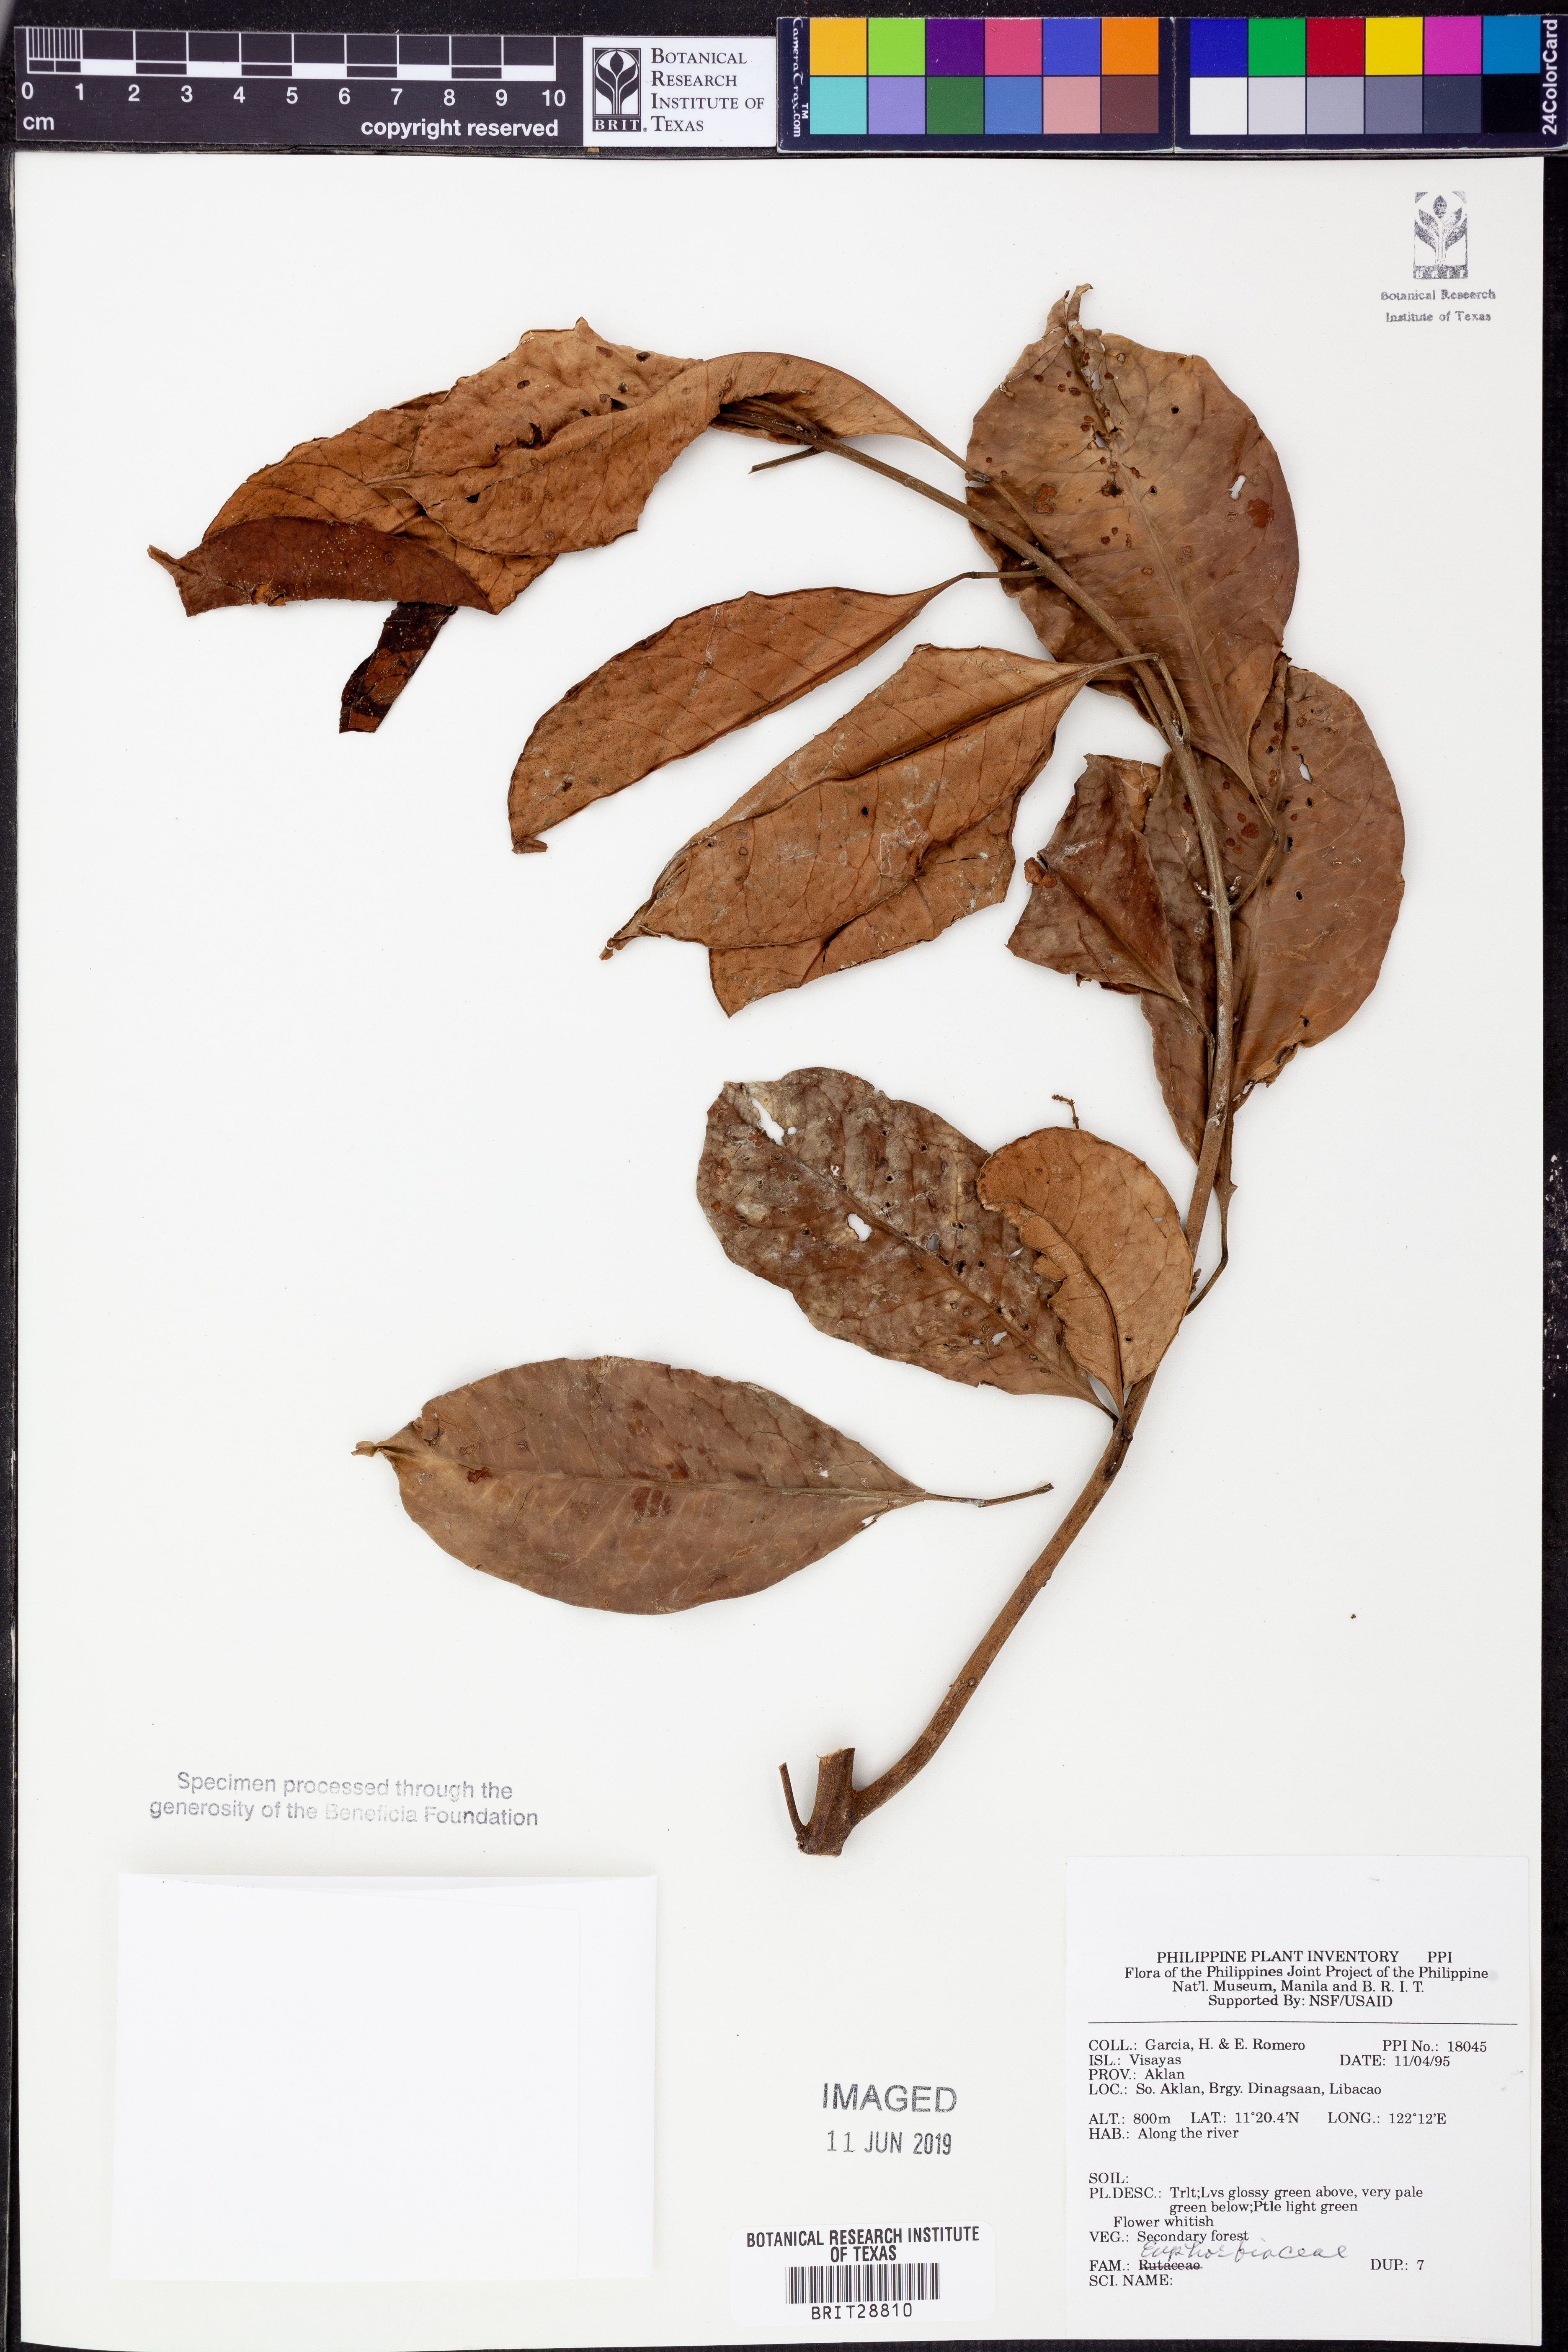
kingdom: Plantae
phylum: Tracheophyta
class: Magnoliopsida
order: Malpighiales
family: Euphorbiaceae
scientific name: Euphorbiaceae
